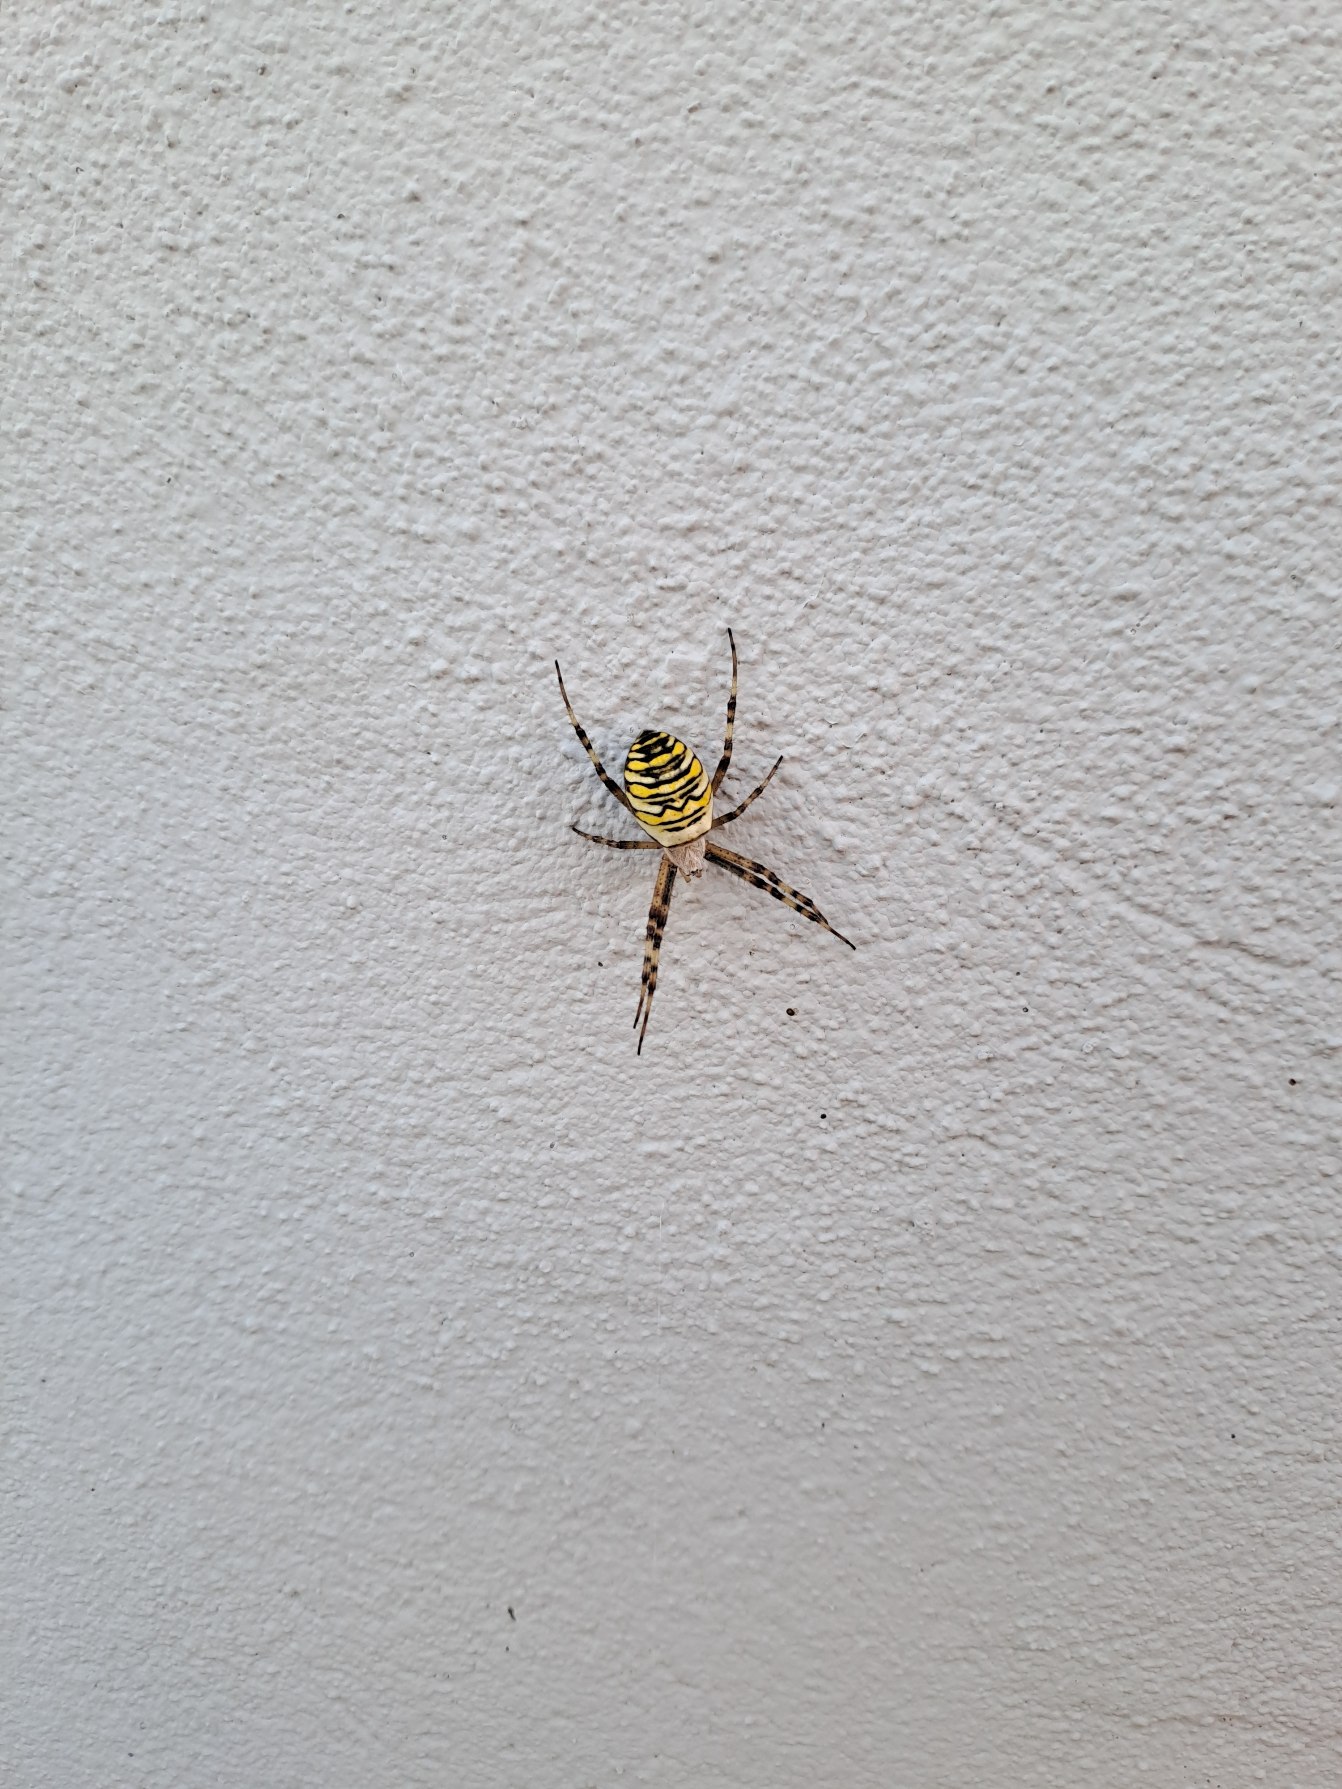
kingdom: Animalia
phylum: Arthropoda
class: Arachnida
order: Araneae
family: Araneidae
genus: Argiope
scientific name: Argiope bruennichi
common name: Hvepseedderkop
